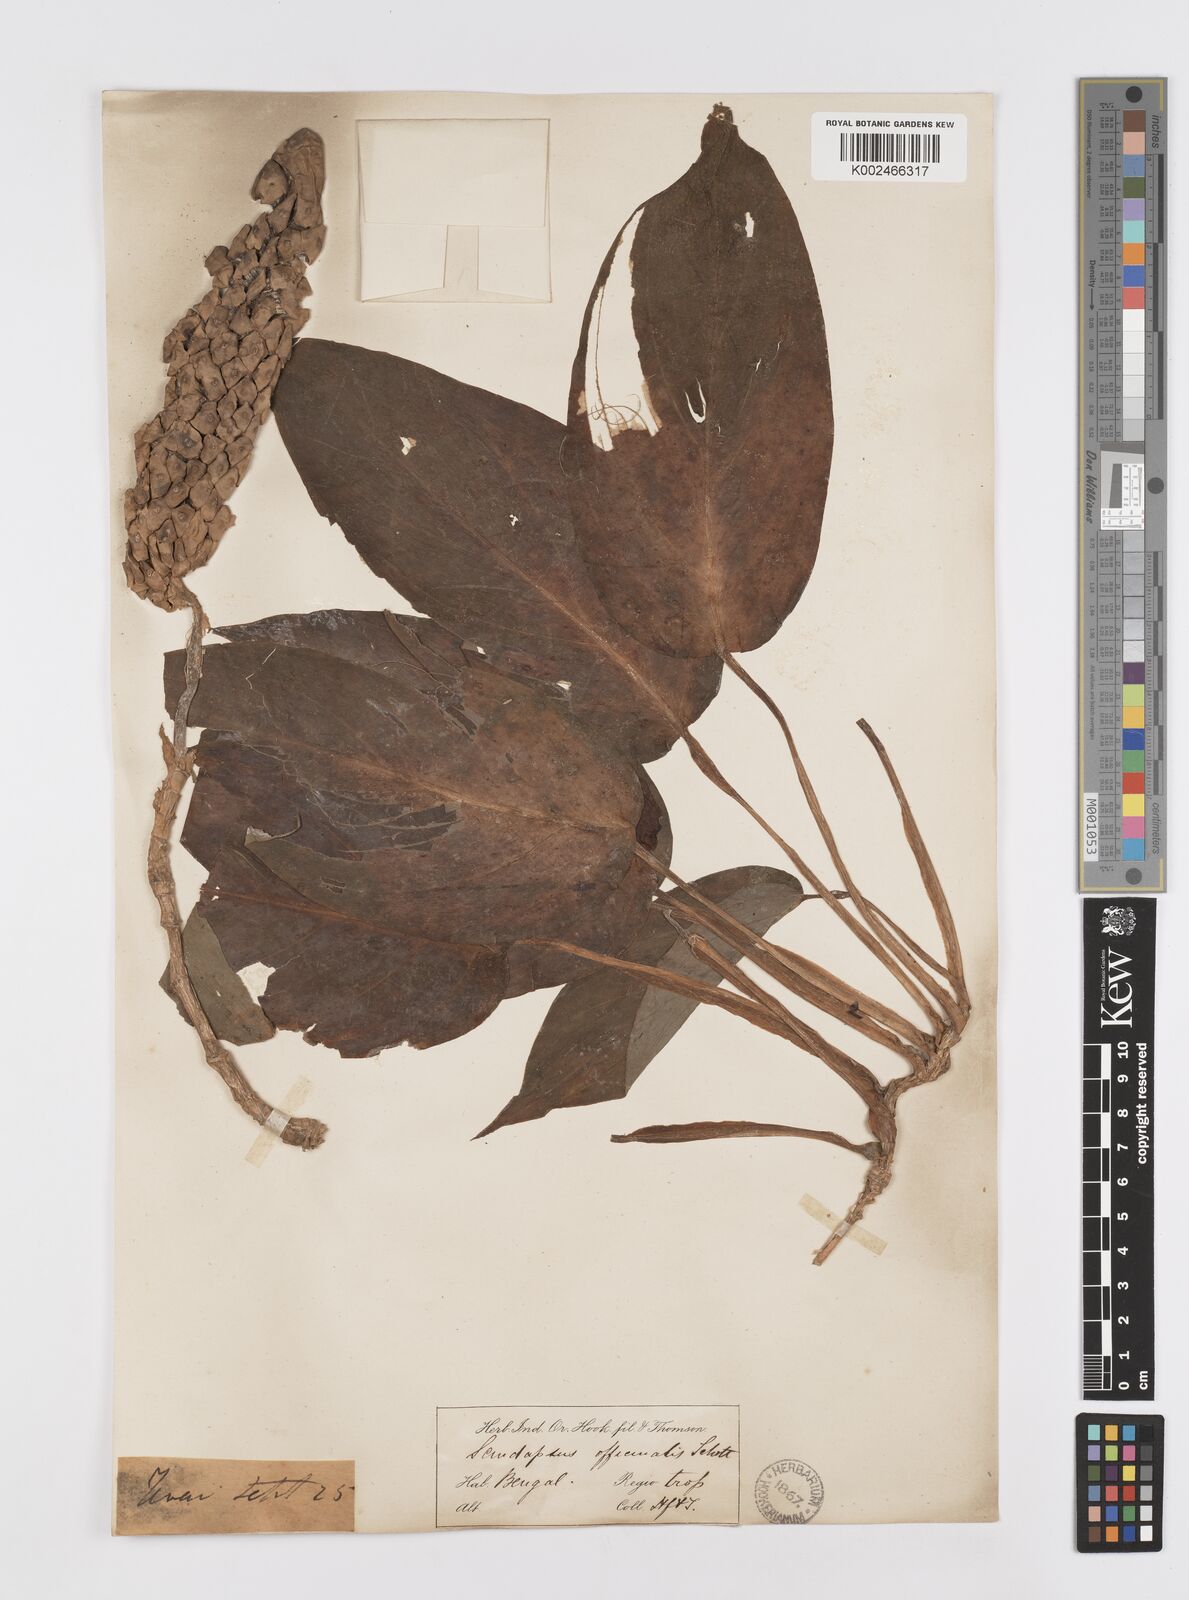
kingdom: Plantae
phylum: Tracheophyta
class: Liliopsida
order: Alismatales
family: Araceae
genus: Scindapsus
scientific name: Scindapsus officinalis
